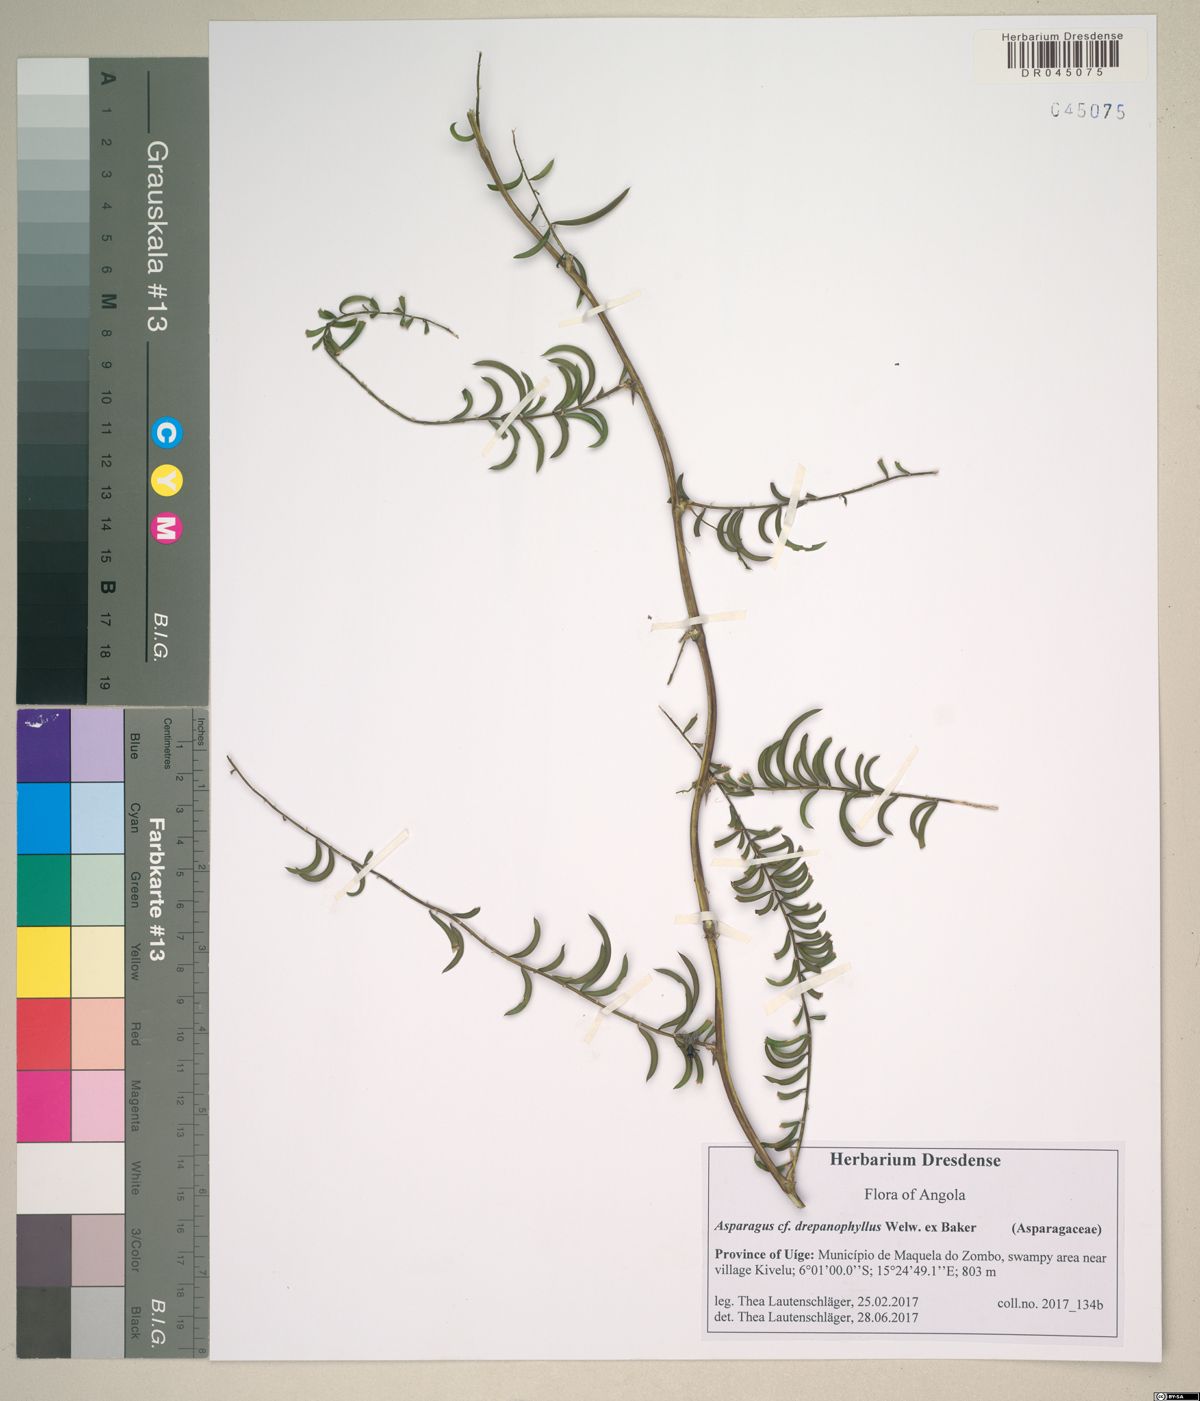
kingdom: Plantae
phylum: Tracheophyta
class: Liliopsida
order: Asparagales
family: Asparagaceae
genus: Asparagus
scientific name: Asparagus drepanophyllus
